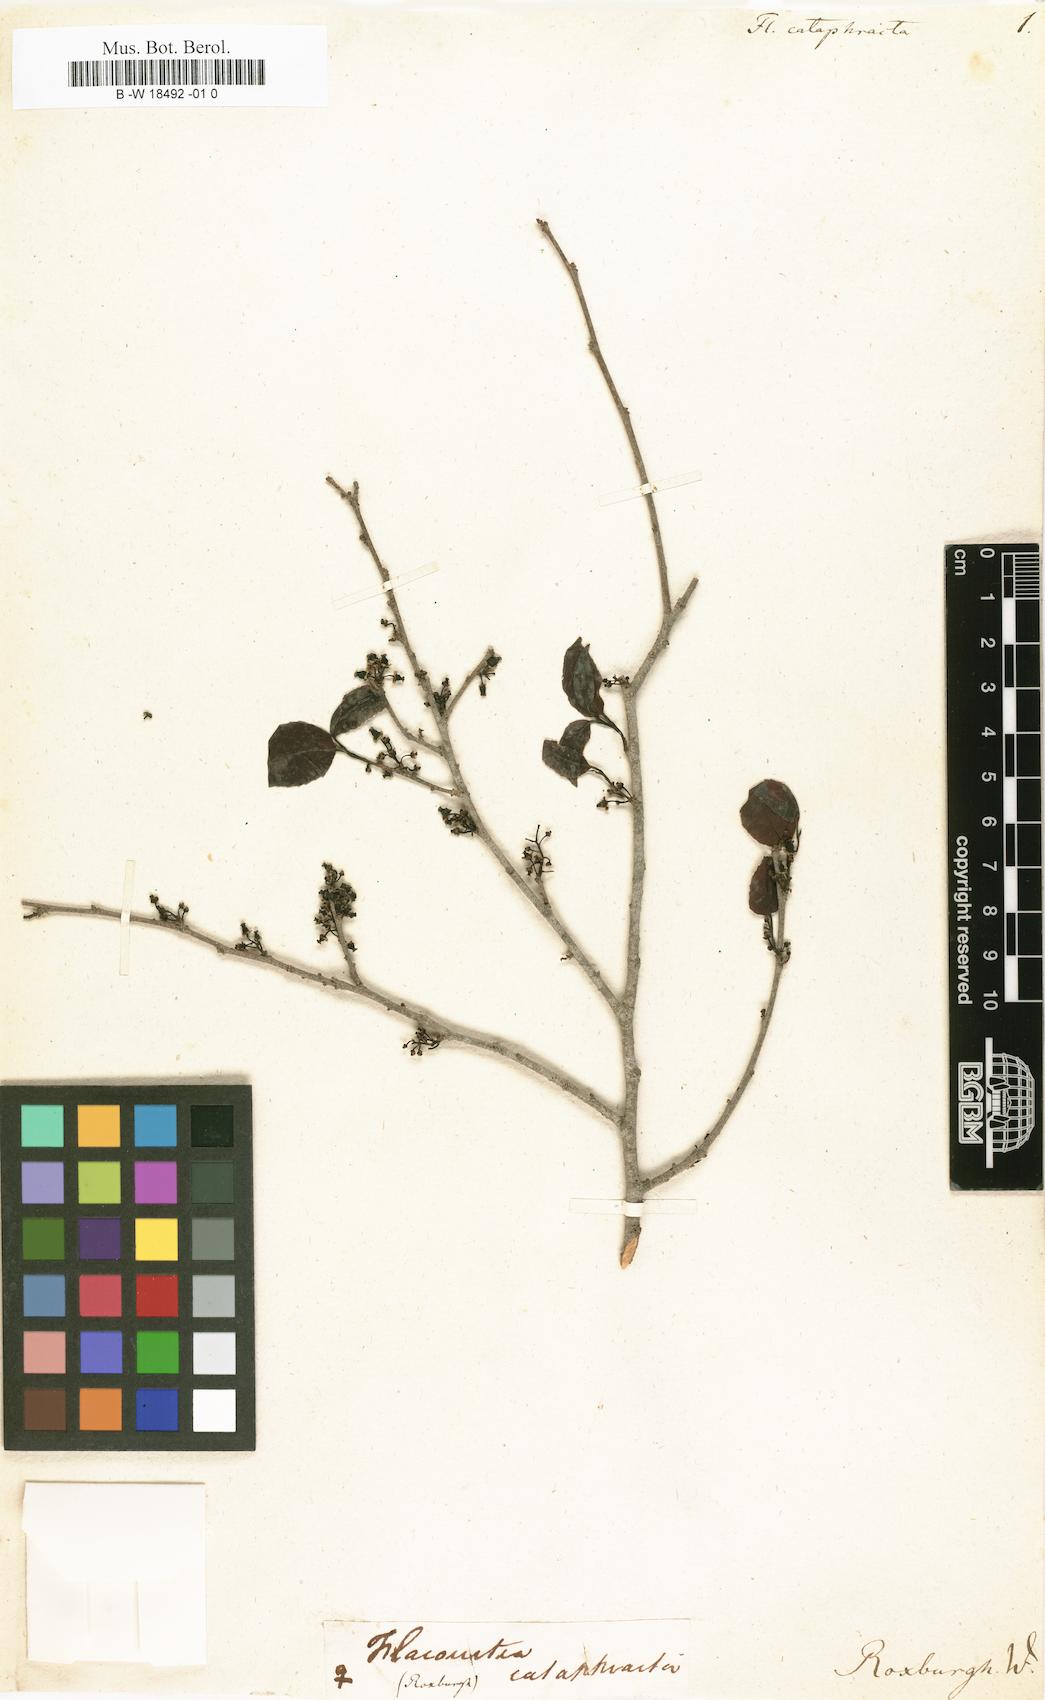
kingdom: Plantae
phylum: Tracheophyta
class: Magnoliopsida
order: Malpighiales
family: Salicaceae
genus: Flacourtia
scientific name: Flacourtia jangomas
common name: Indian-plum
